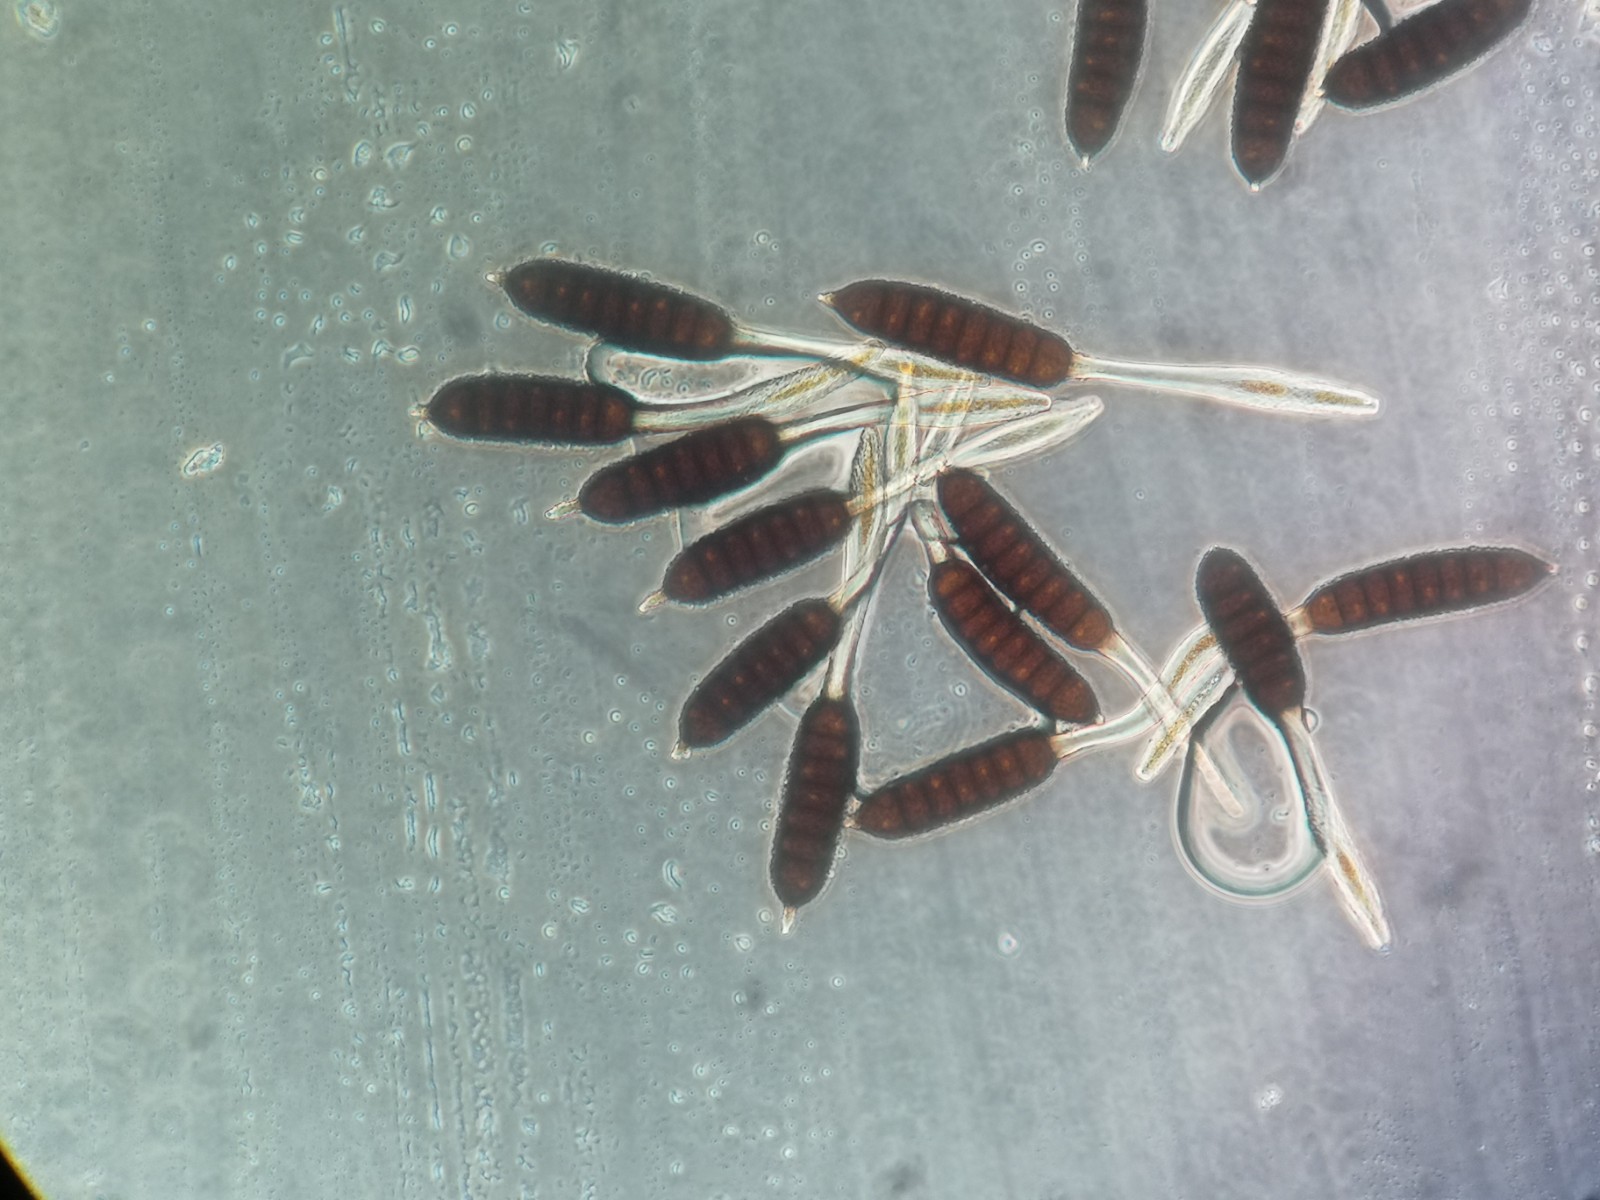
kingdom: Fungi
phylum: Basidiomycota
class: Pucciniomycetes
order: Pucciniales
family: Phragmidiaceae
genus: Phragmidium
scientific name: Phragmidium rubi-idaei
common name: hindbær-flercellerust
